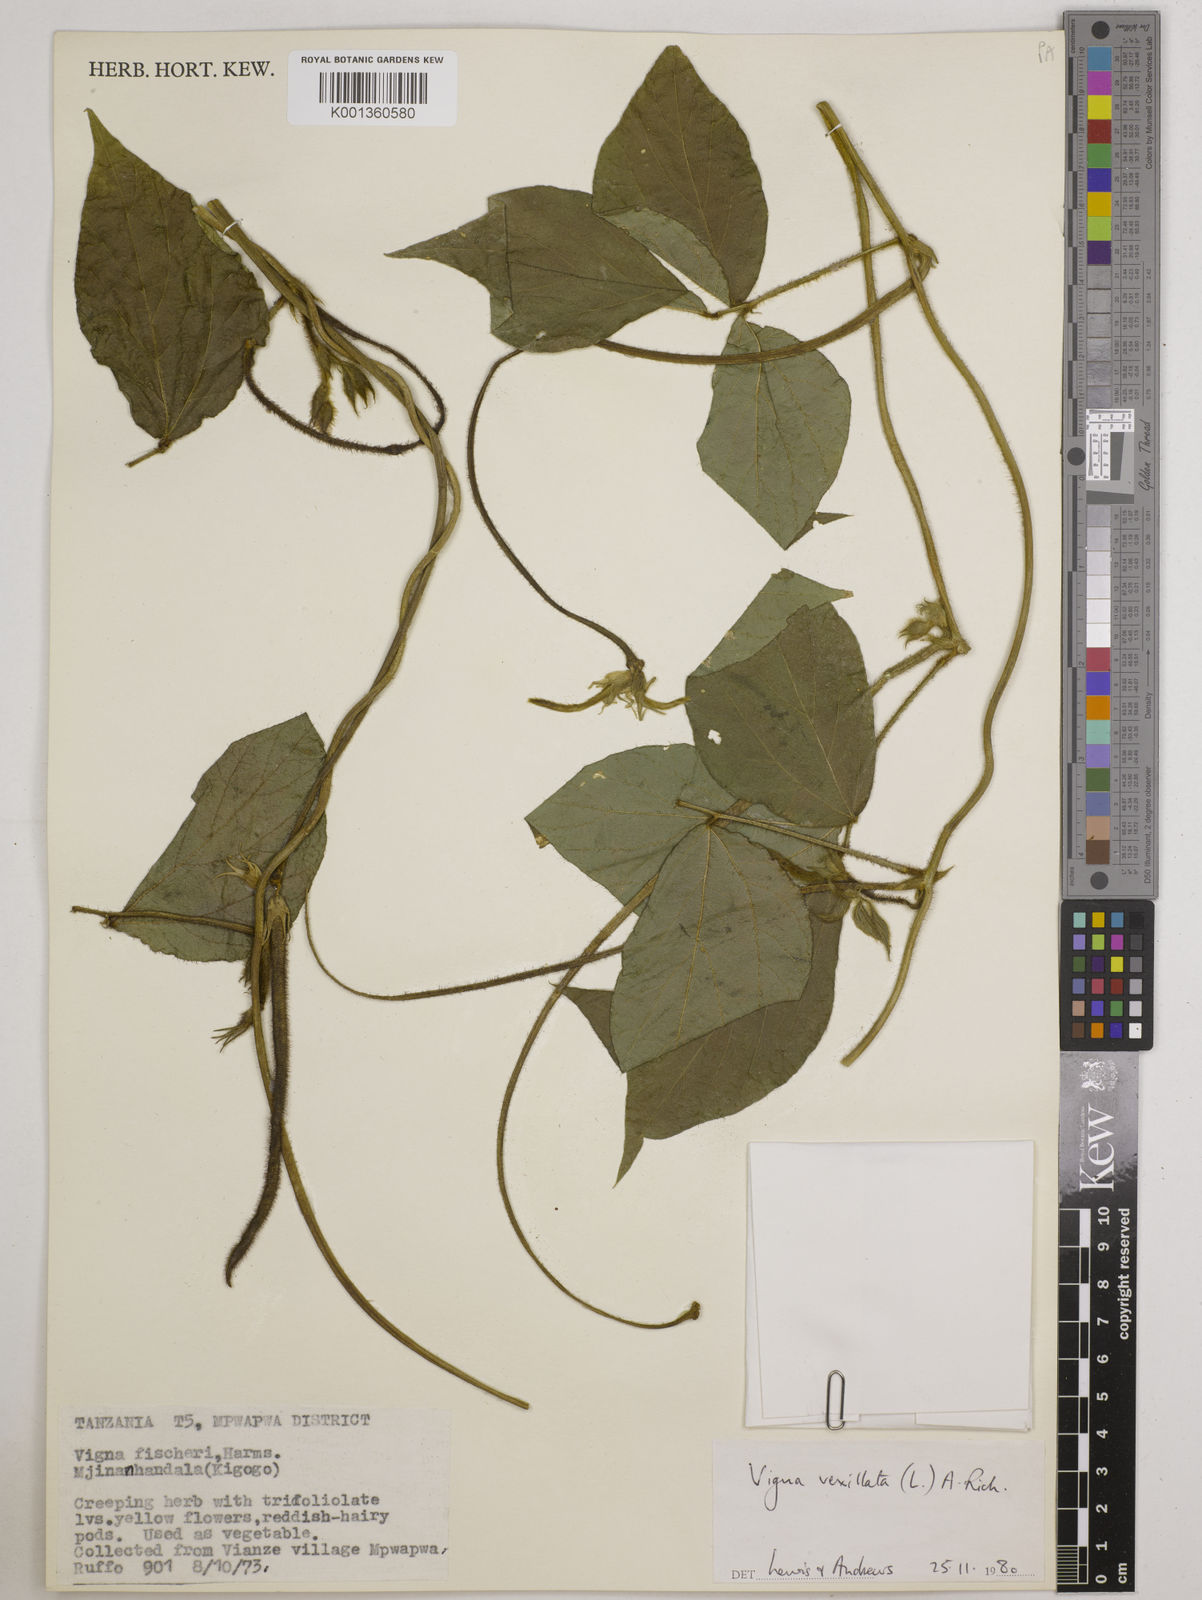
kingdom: Plantae
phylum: Tracheophyta
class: Magnoliopsida
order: Fabales
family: Fabaceae
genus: Vigna
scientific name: Vigna vexillata
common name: Zombi pea
